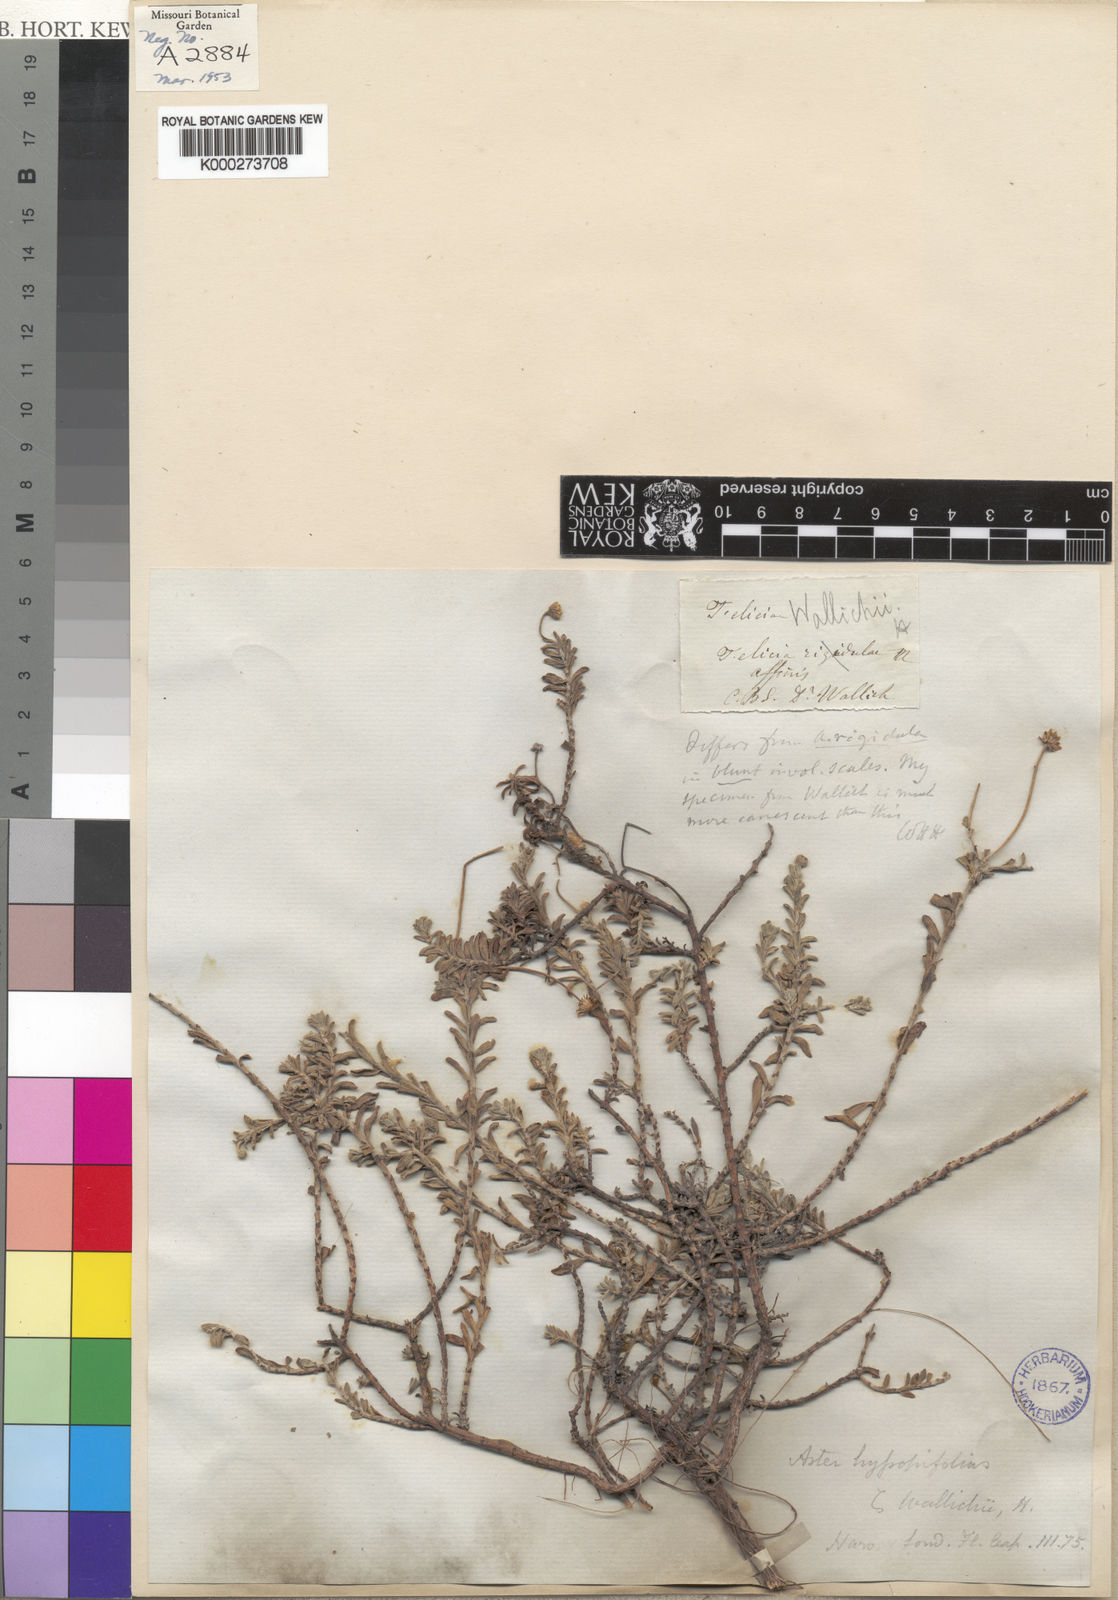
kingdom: Plantae
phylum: Tracheophyta
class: Magnoliopsida
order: Asterales
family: Asteraceae
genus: Felicia
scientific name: Felicia
